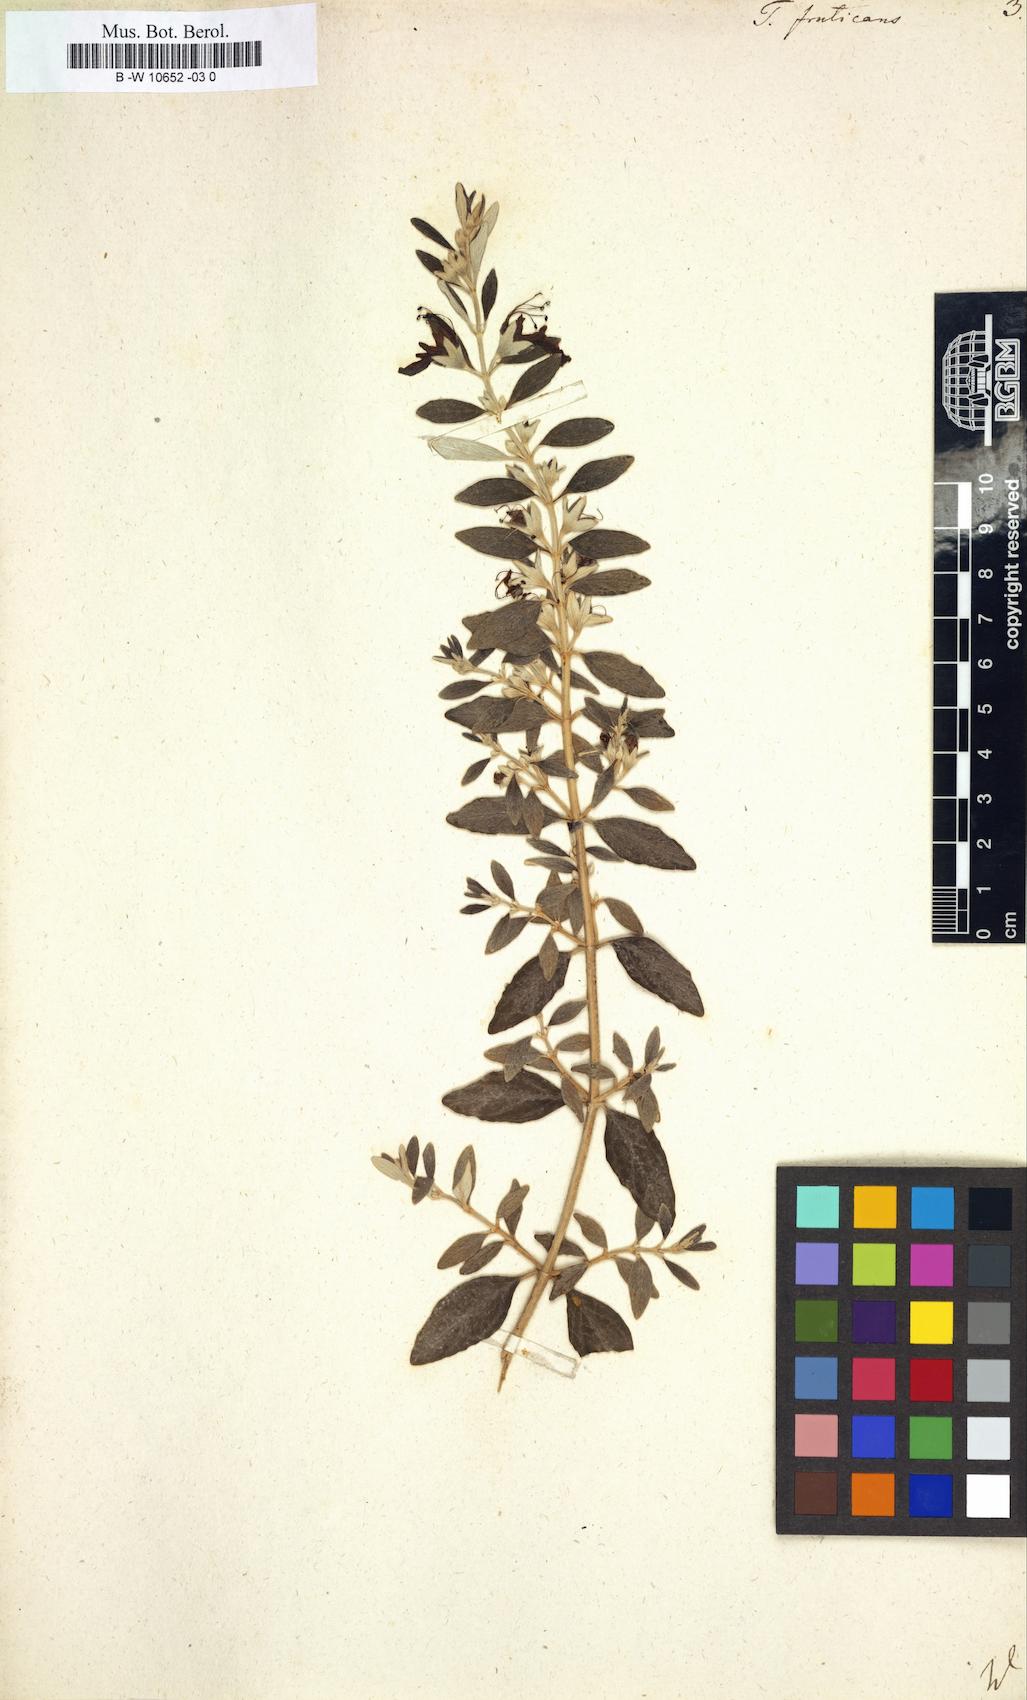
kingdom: Plantae
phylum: Tracheophyta
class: Magnoliopsida
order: Lamiales
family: Lamiaceae
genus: Teucrium
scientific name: Teucrium fruticans
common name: Shrubby germander
